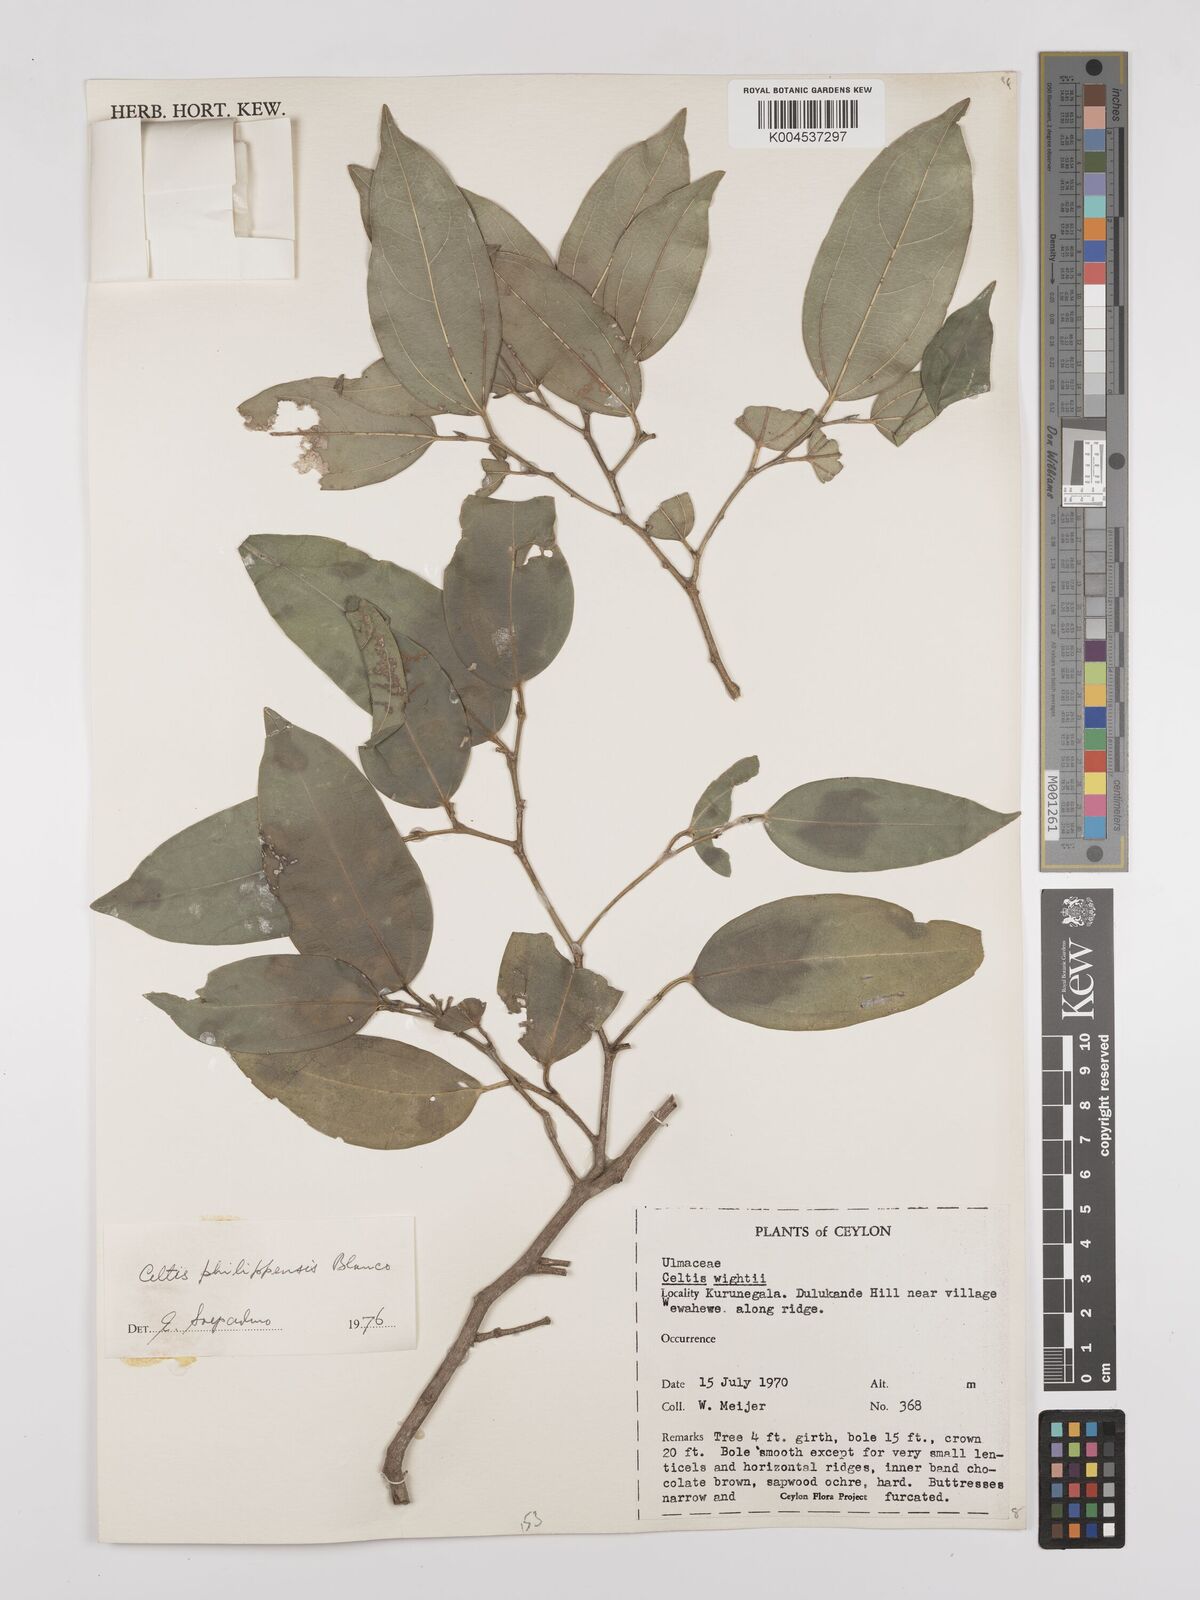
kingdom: Plantae
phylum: Tracheophyta
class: Magnoliopsida
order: Rosales
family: Cannabaceae
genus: Celtis
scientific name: Celtis philippensis
